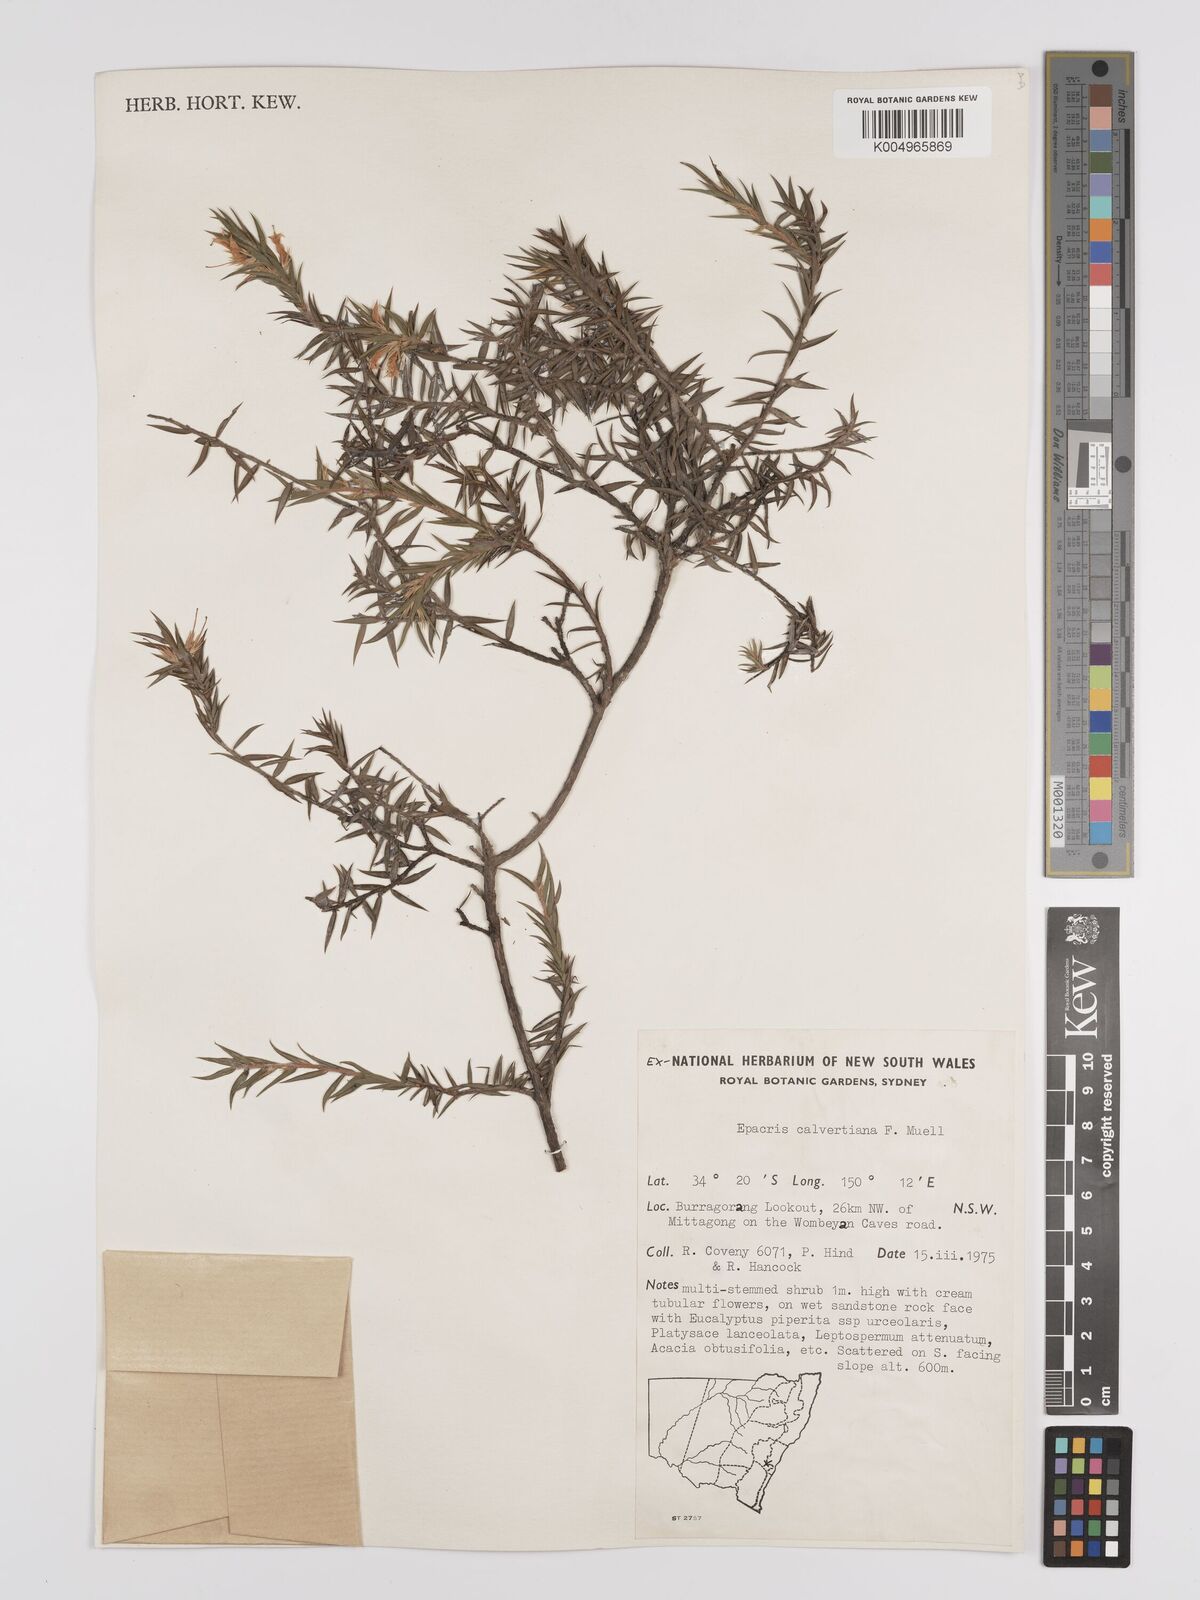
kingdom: Plantae
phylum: Tracheophyta
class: Magnoliopsida
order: Ericales
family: Ericaceae
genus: Epacris
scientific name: Epacris calvertiana
